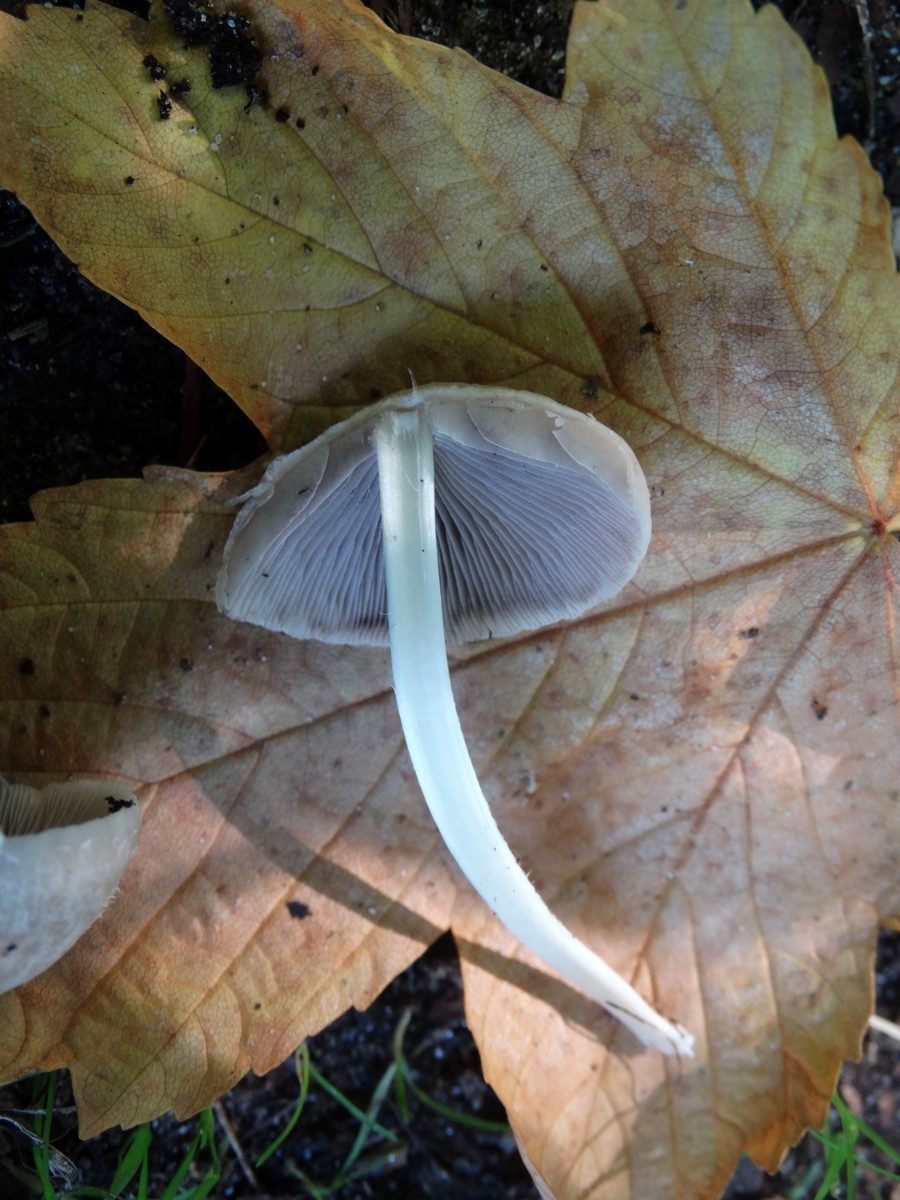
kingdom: Fungi
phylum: Basidiomycota
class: Agaricomycetes
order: Agaricales
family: Psathyrellaceae
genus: Candolleomyces
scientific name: Candolleomyces candolleanus
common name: Candolles mørkhat
